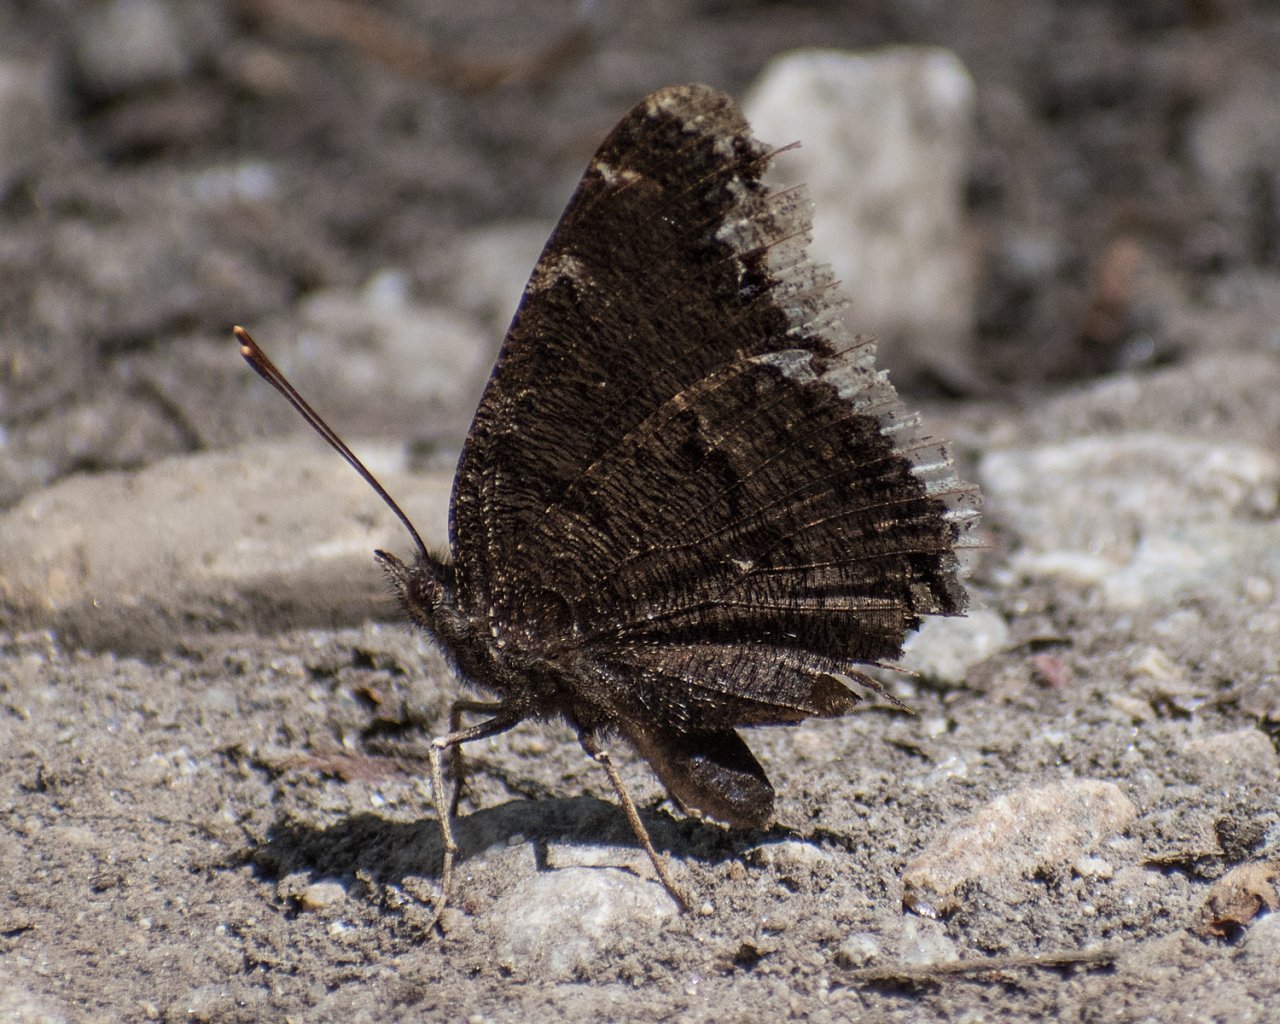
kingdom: Animalia
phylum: Arthropoda
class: Insecta
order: Lepidoptera
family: Nymphalidae
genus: Nymphalis
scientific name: Nymphalis antiopa
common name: Mourning Cloak
